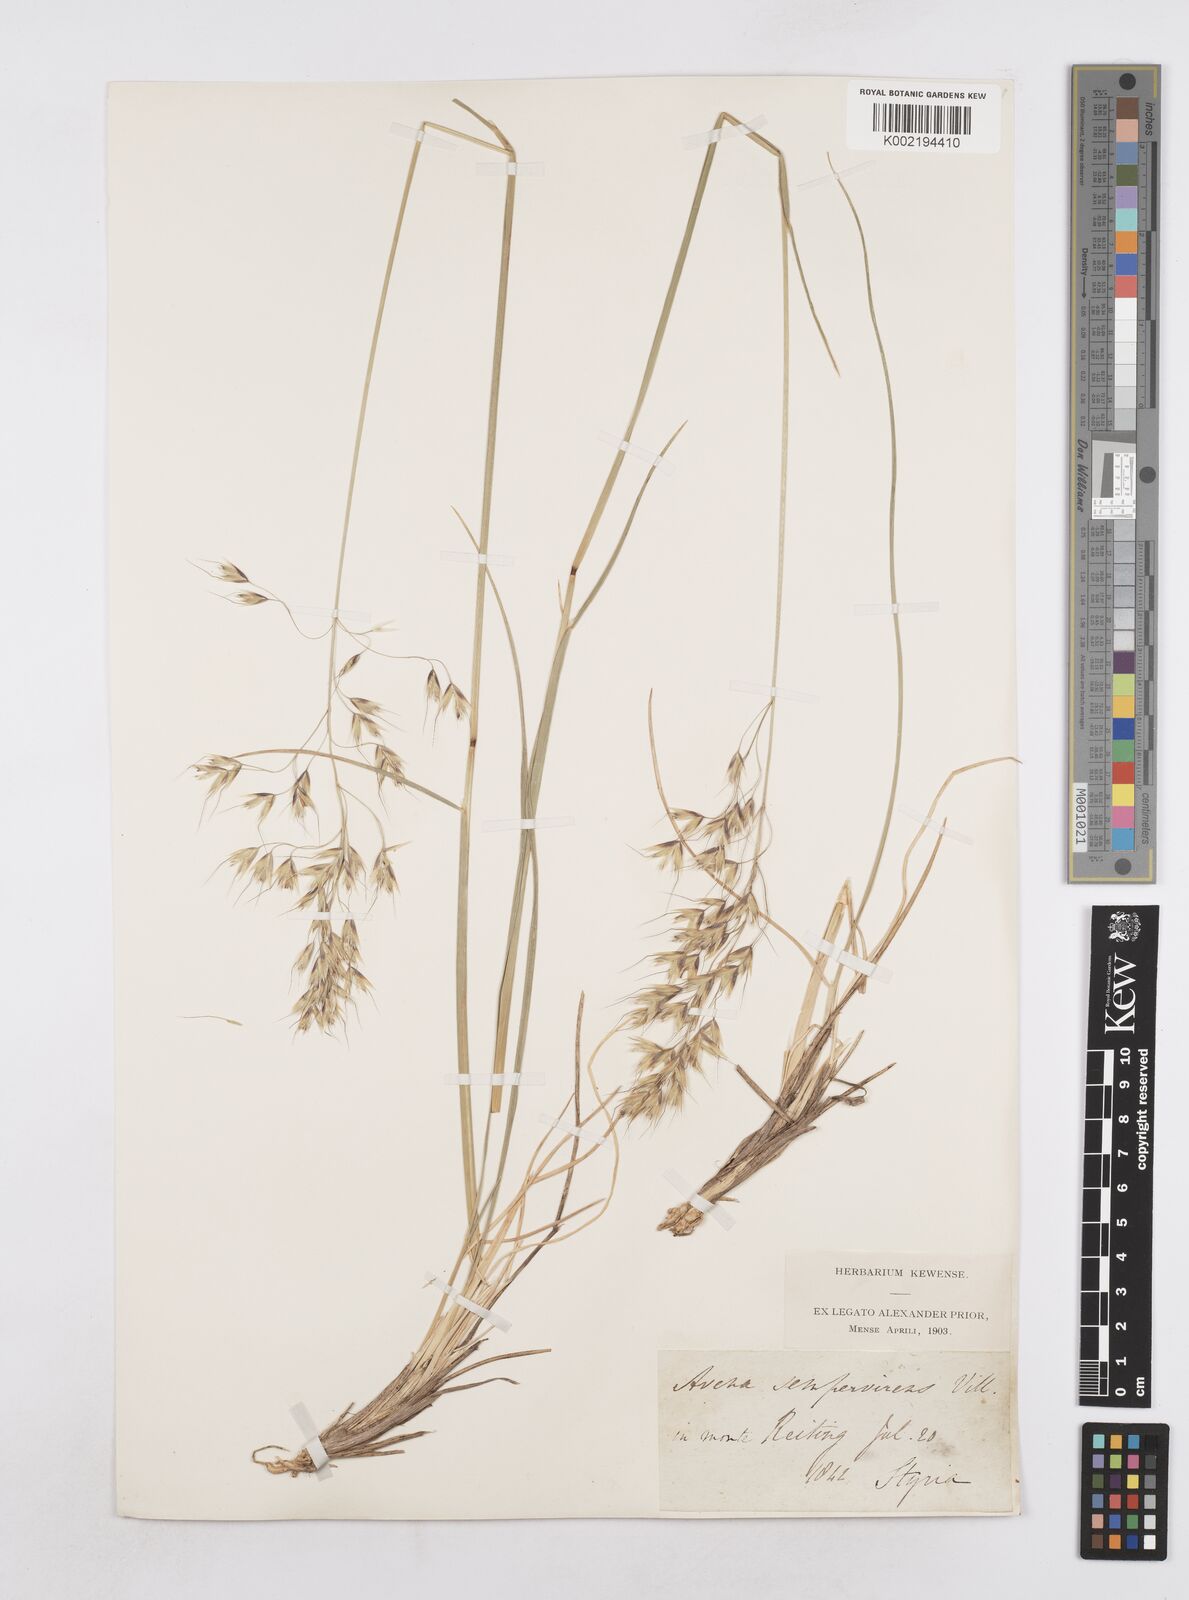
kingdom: Plantae
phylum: Tracheophyta
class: Liliopsida
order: Poales
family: Poaceae
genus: Helictotrichon
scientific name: Helictotrichon
